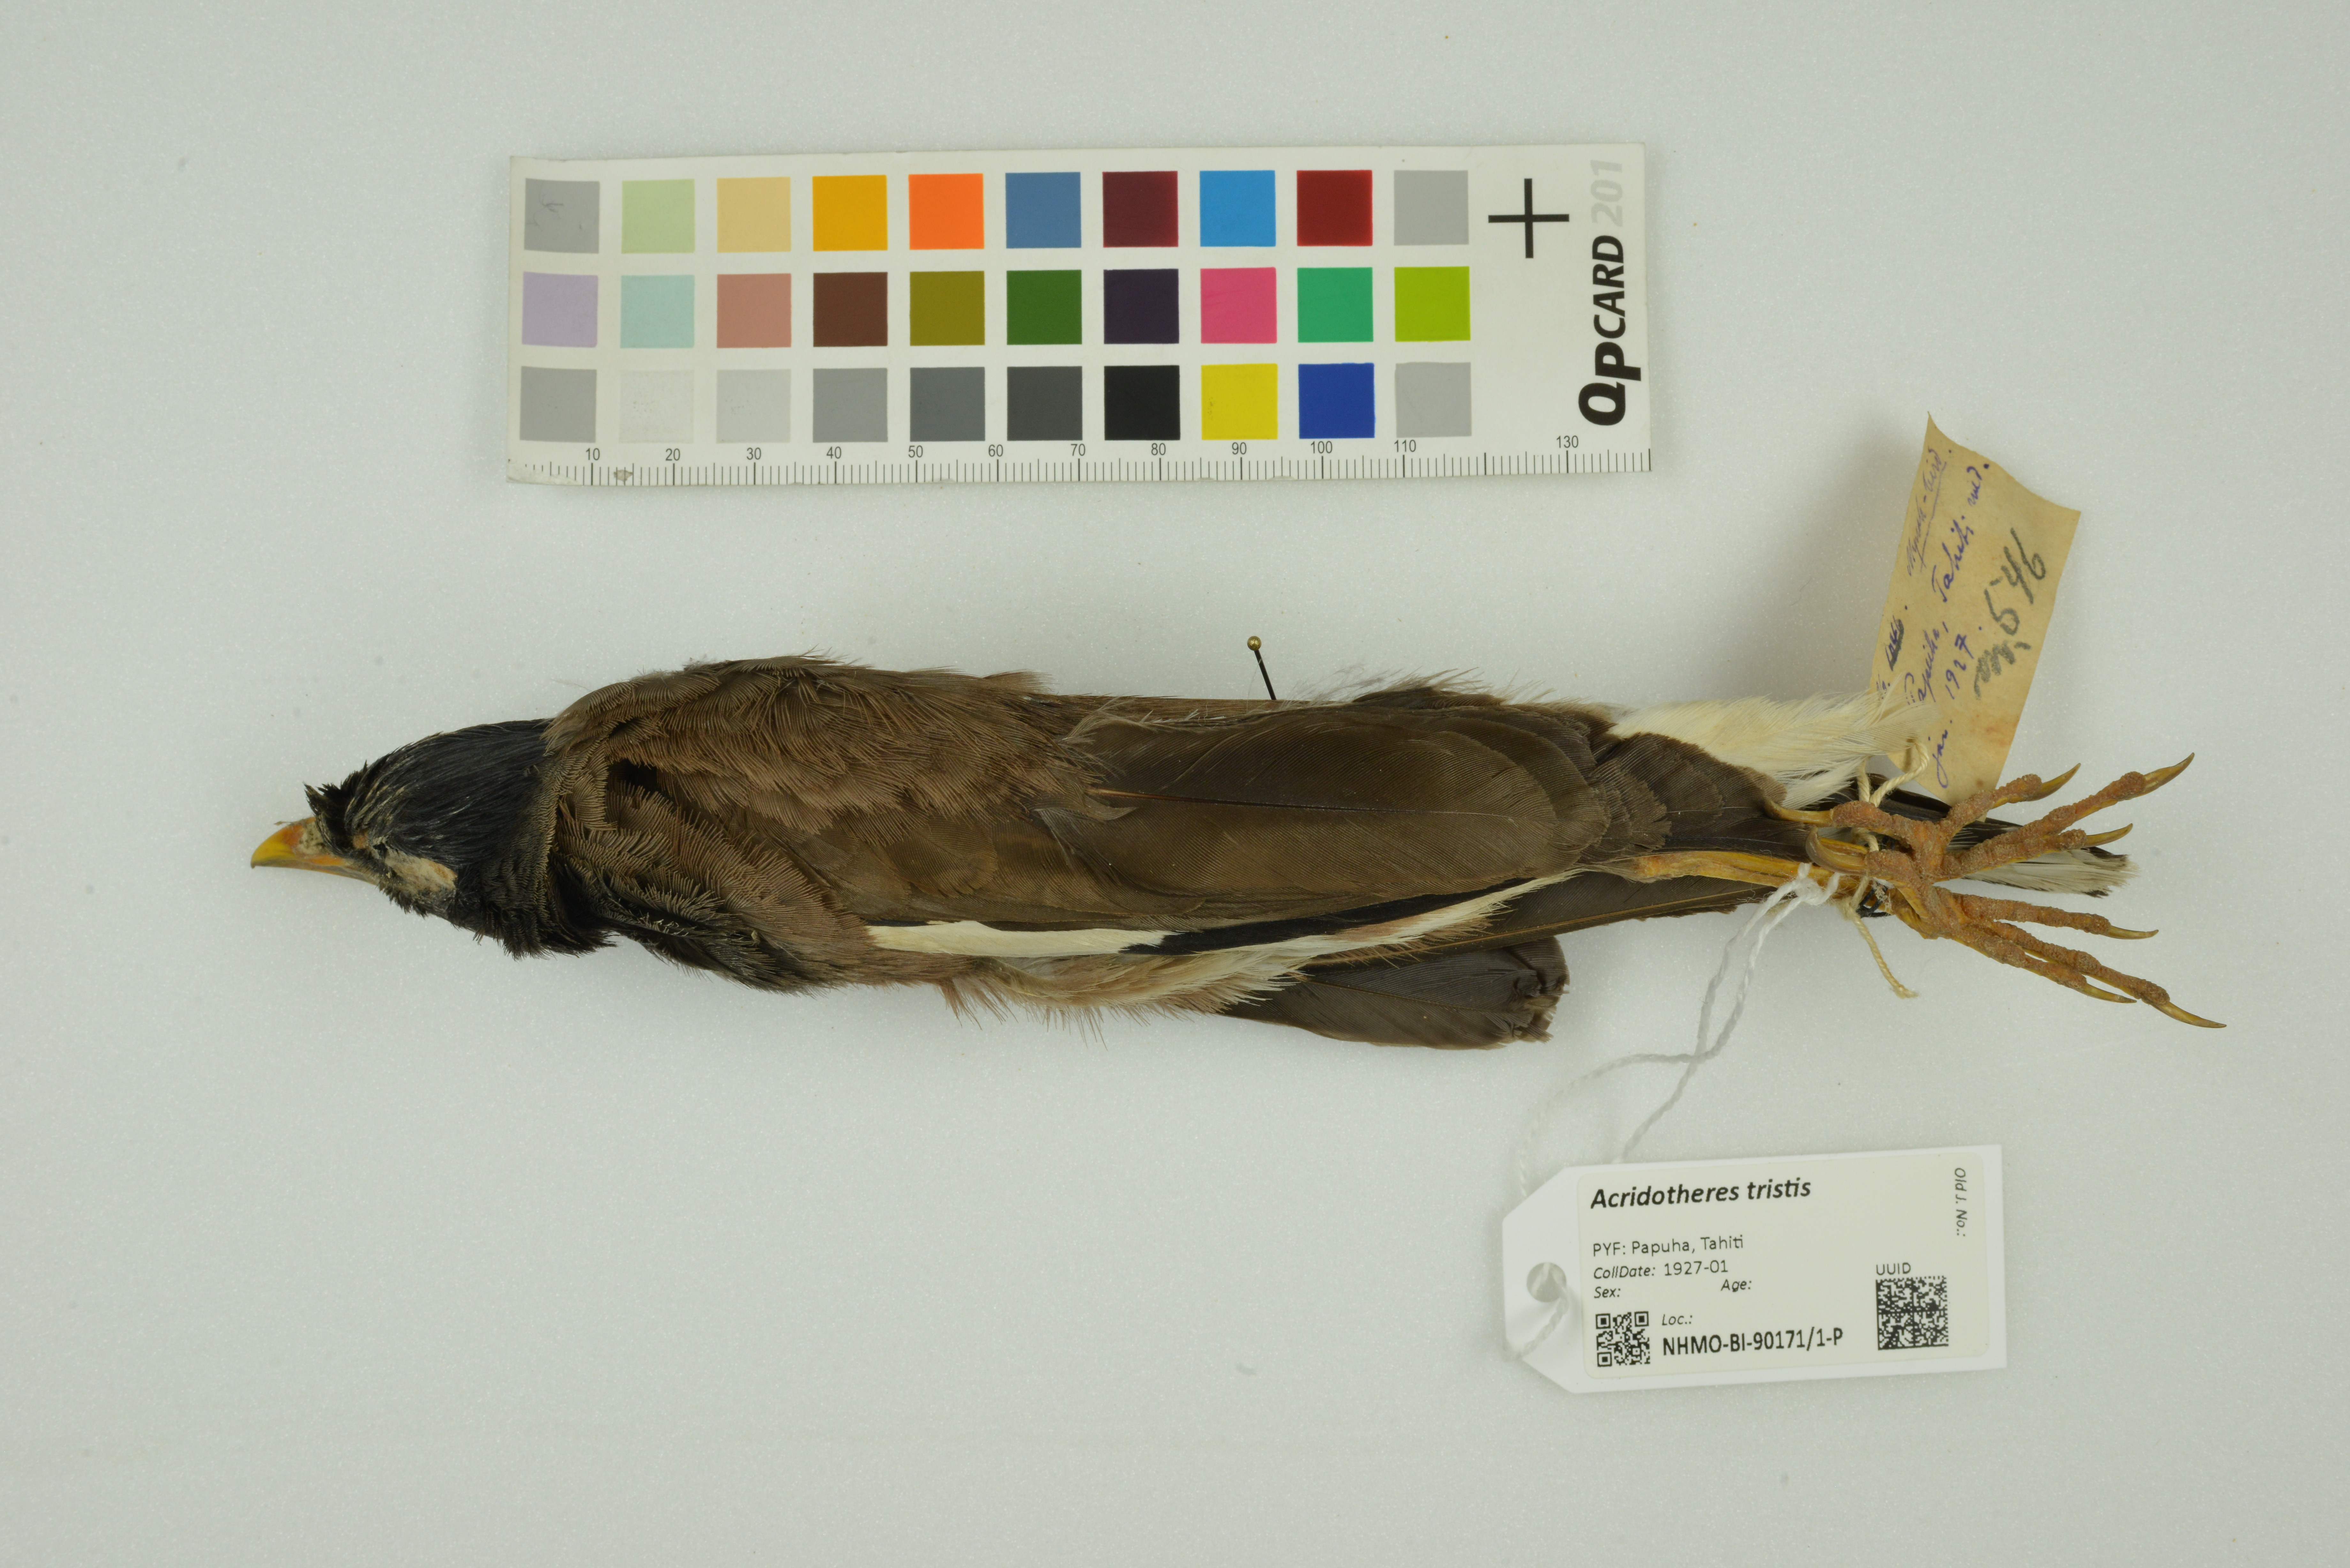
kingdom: Animalia
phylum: Chordata
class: Aves
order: Passeriformes
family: Sturnidae
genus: Acridotheres
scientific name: Acridotheres tristis
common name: Common myna
